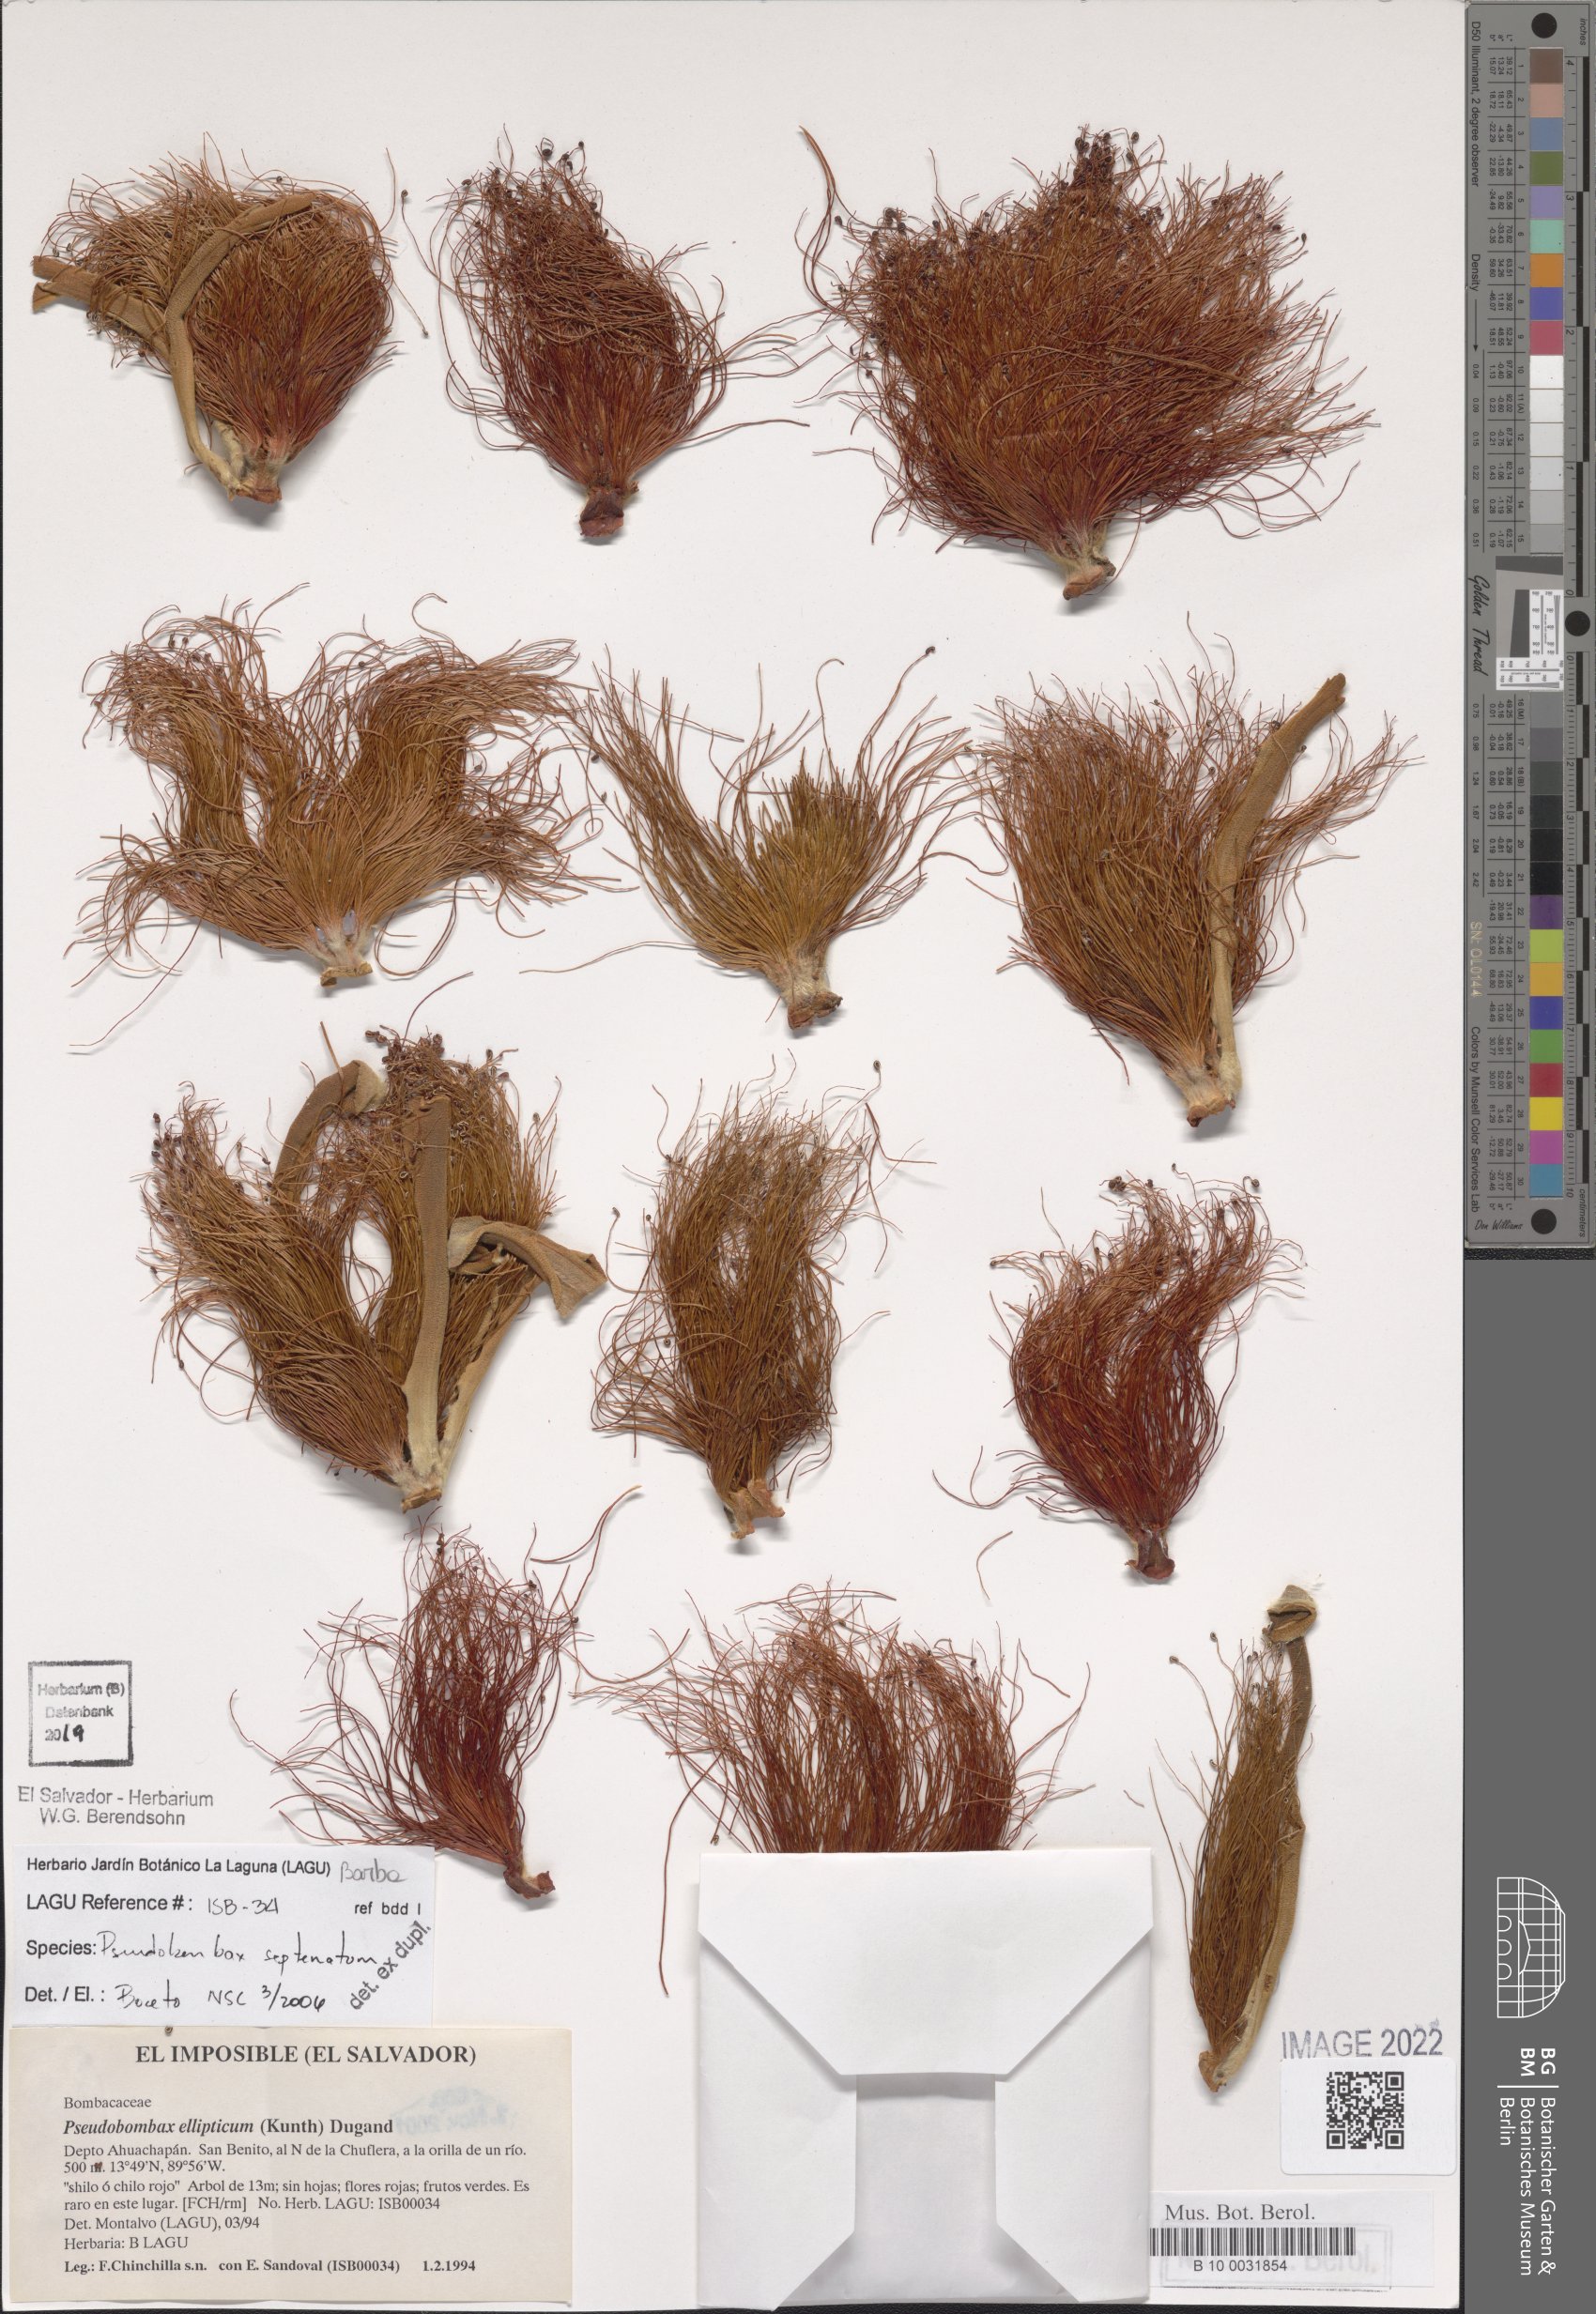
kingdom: Plantae
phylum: Tracheophyta
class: Magnoliopsida
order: Malvales
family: Malvaceae
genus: Pseudobombax
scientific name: Pseudobombax septenatum
